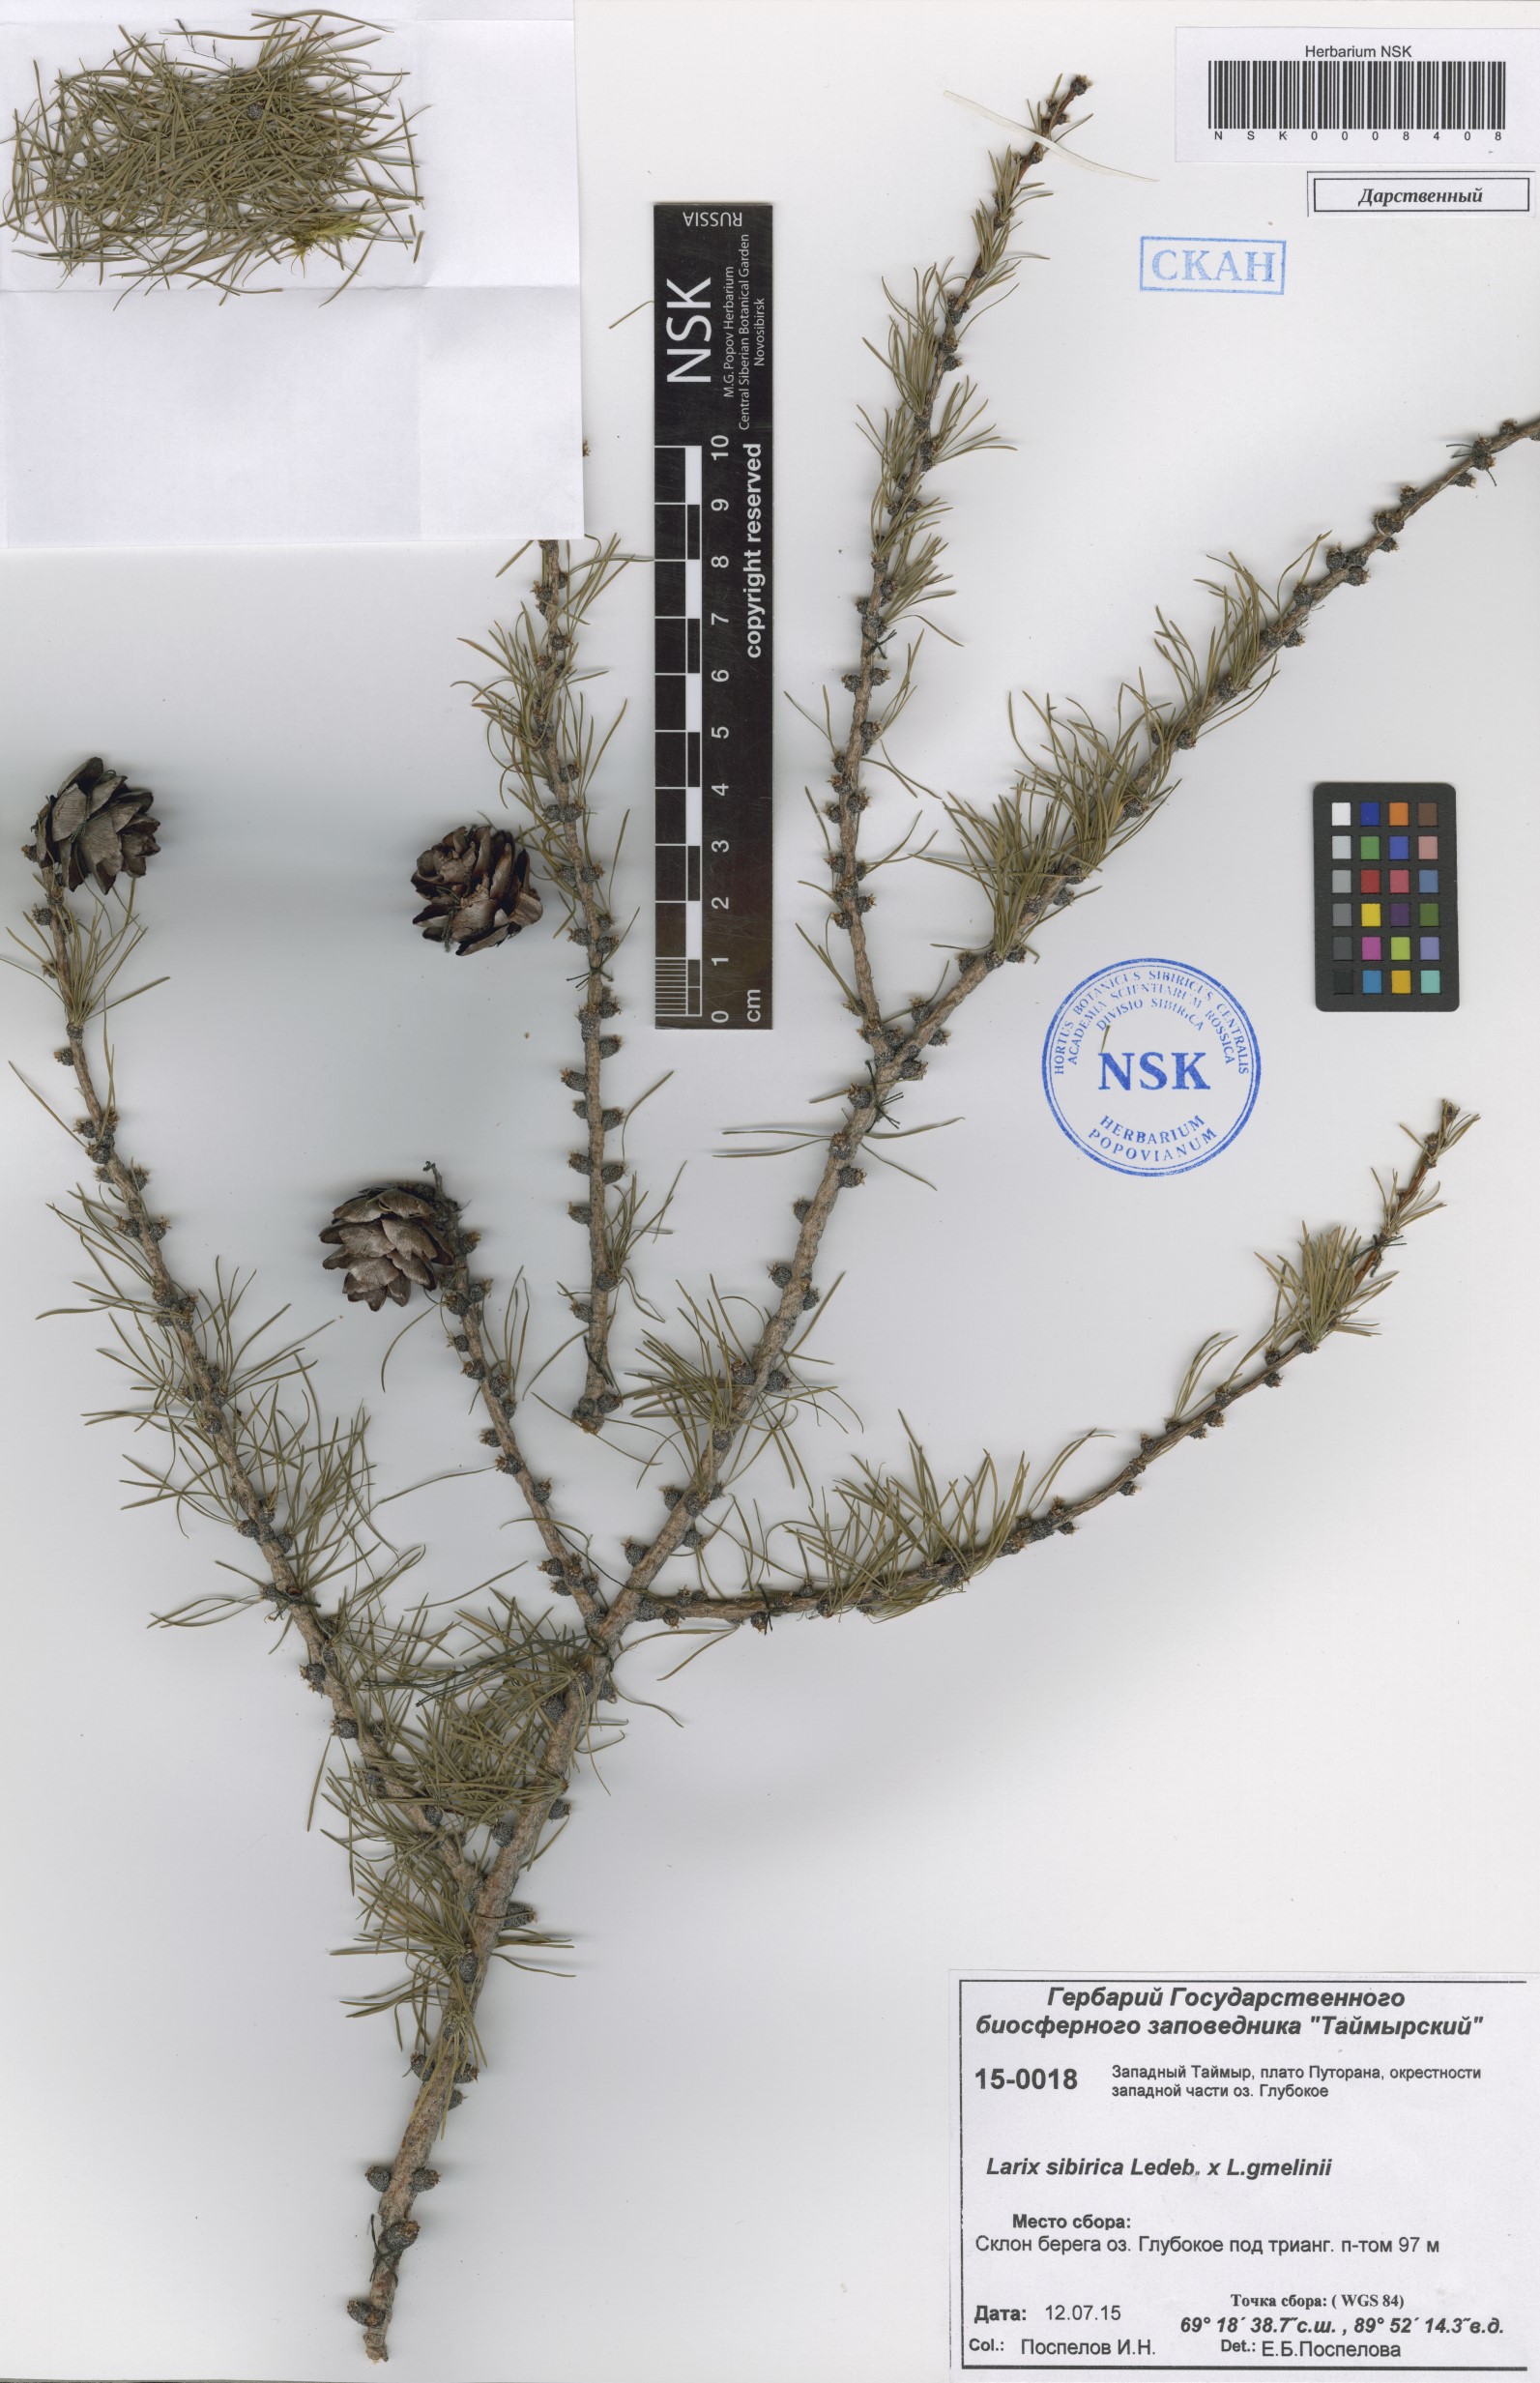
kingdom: Plantae
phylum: Tracheophyta
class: Pinopsida
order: Pinales
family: Pinaceae
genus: Larix
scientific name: Larix sibirica
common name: Siberian larch
